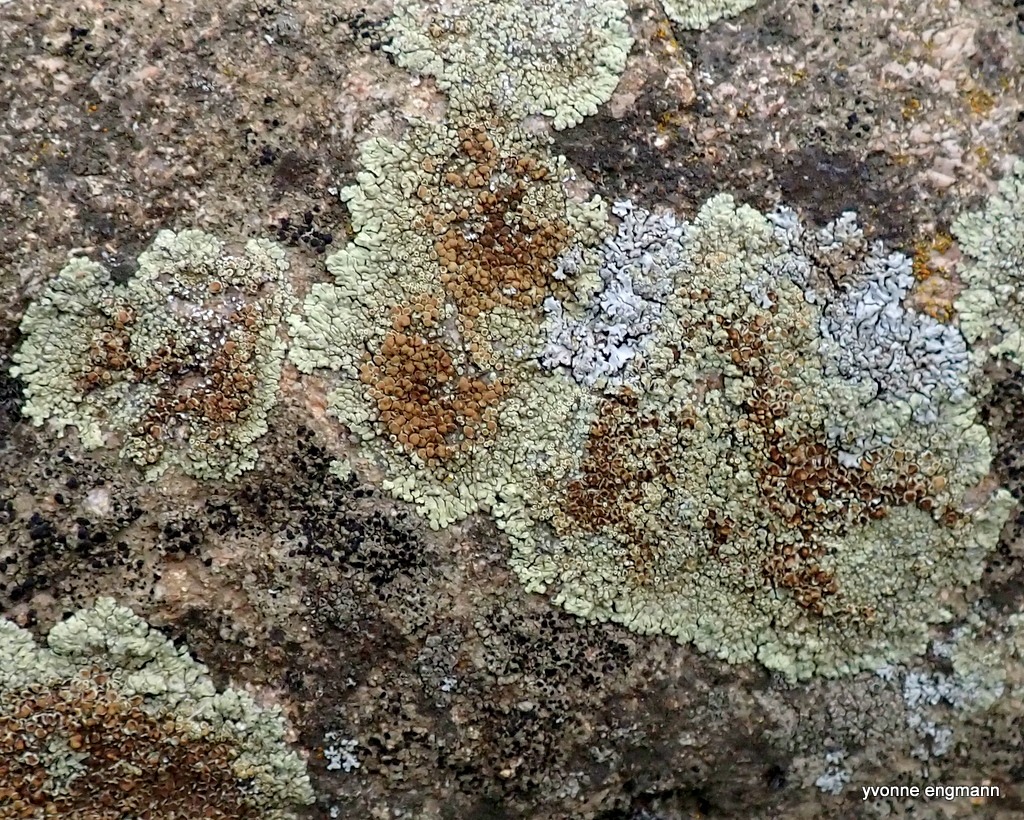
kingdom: Fungi
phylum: Ascomycota
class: Lecanoromycetes
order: Lecanorales
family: Lecanoraceae
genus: Protoparmeliopsis
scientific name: Protoparmeliopsis muralis
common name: Randfliget kantskivelav
